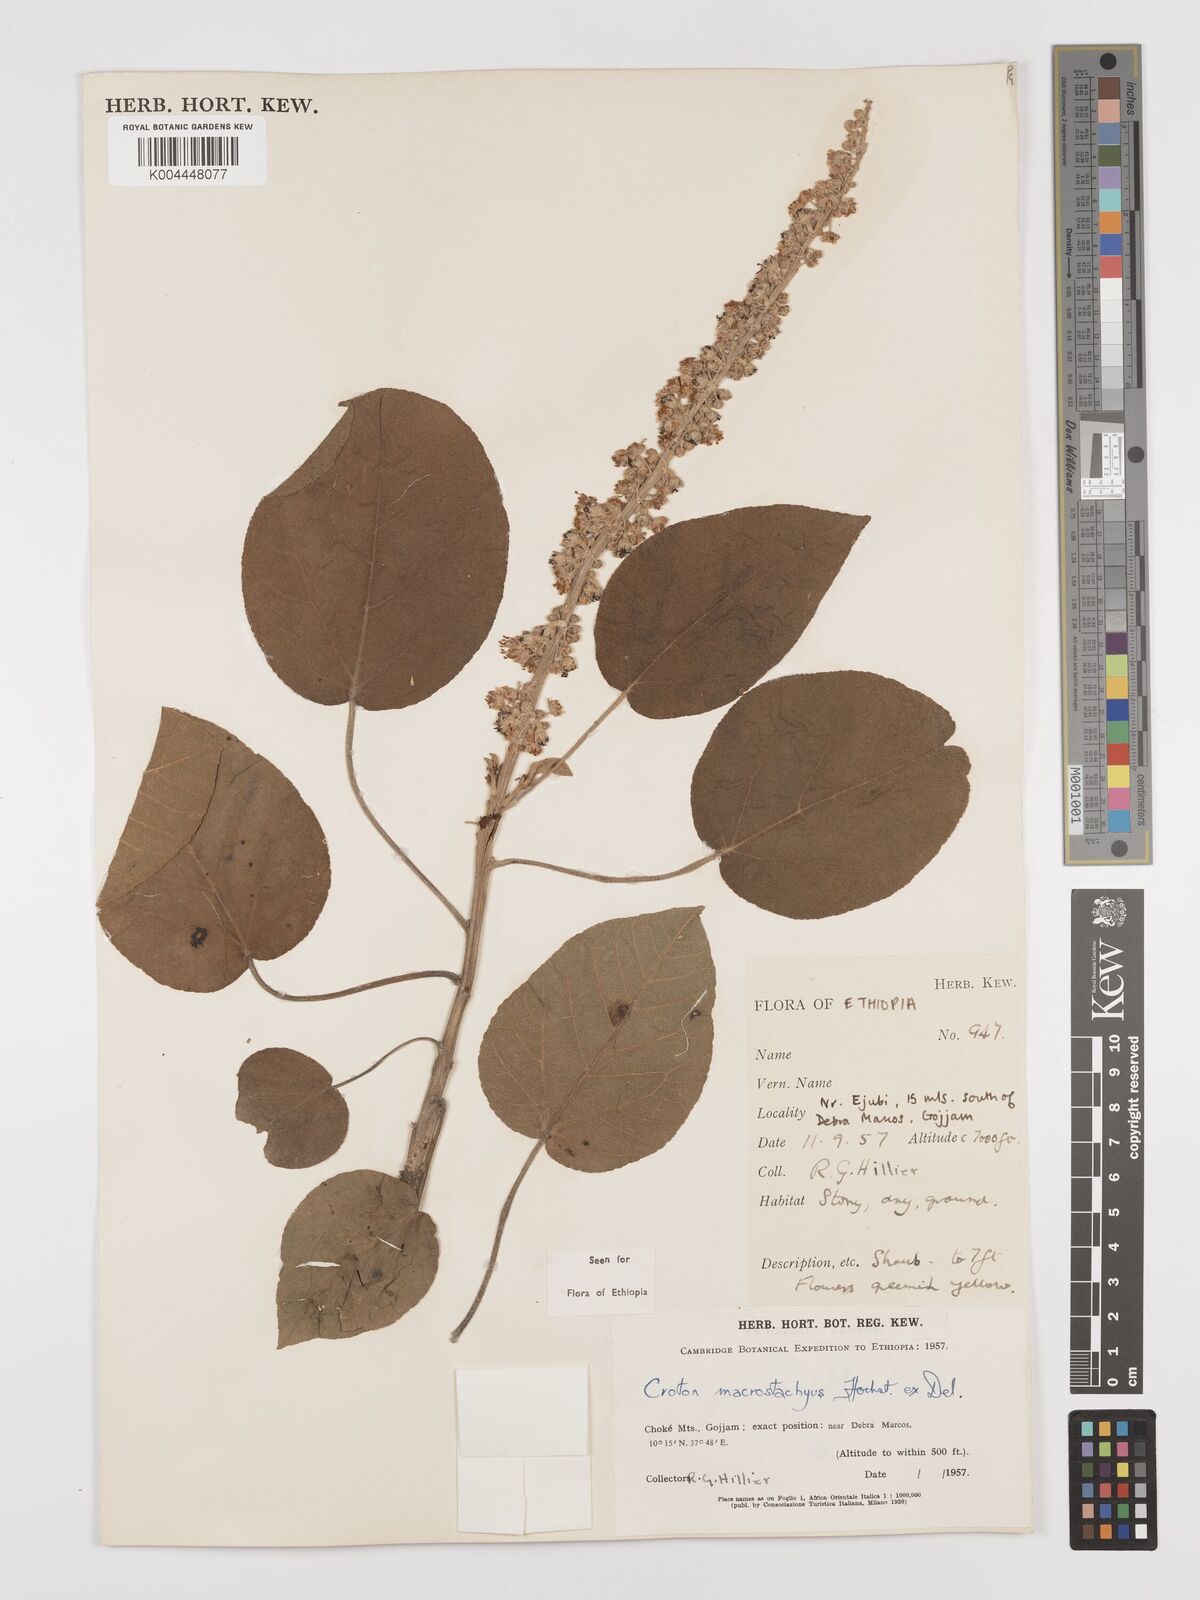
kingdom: Plantae
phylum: Tracheophyta
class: Magnoliopsida
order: Malpighiales
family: Euphorbiaceae
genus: Croton
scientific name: Croton macrostachyus
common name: Mutundu
